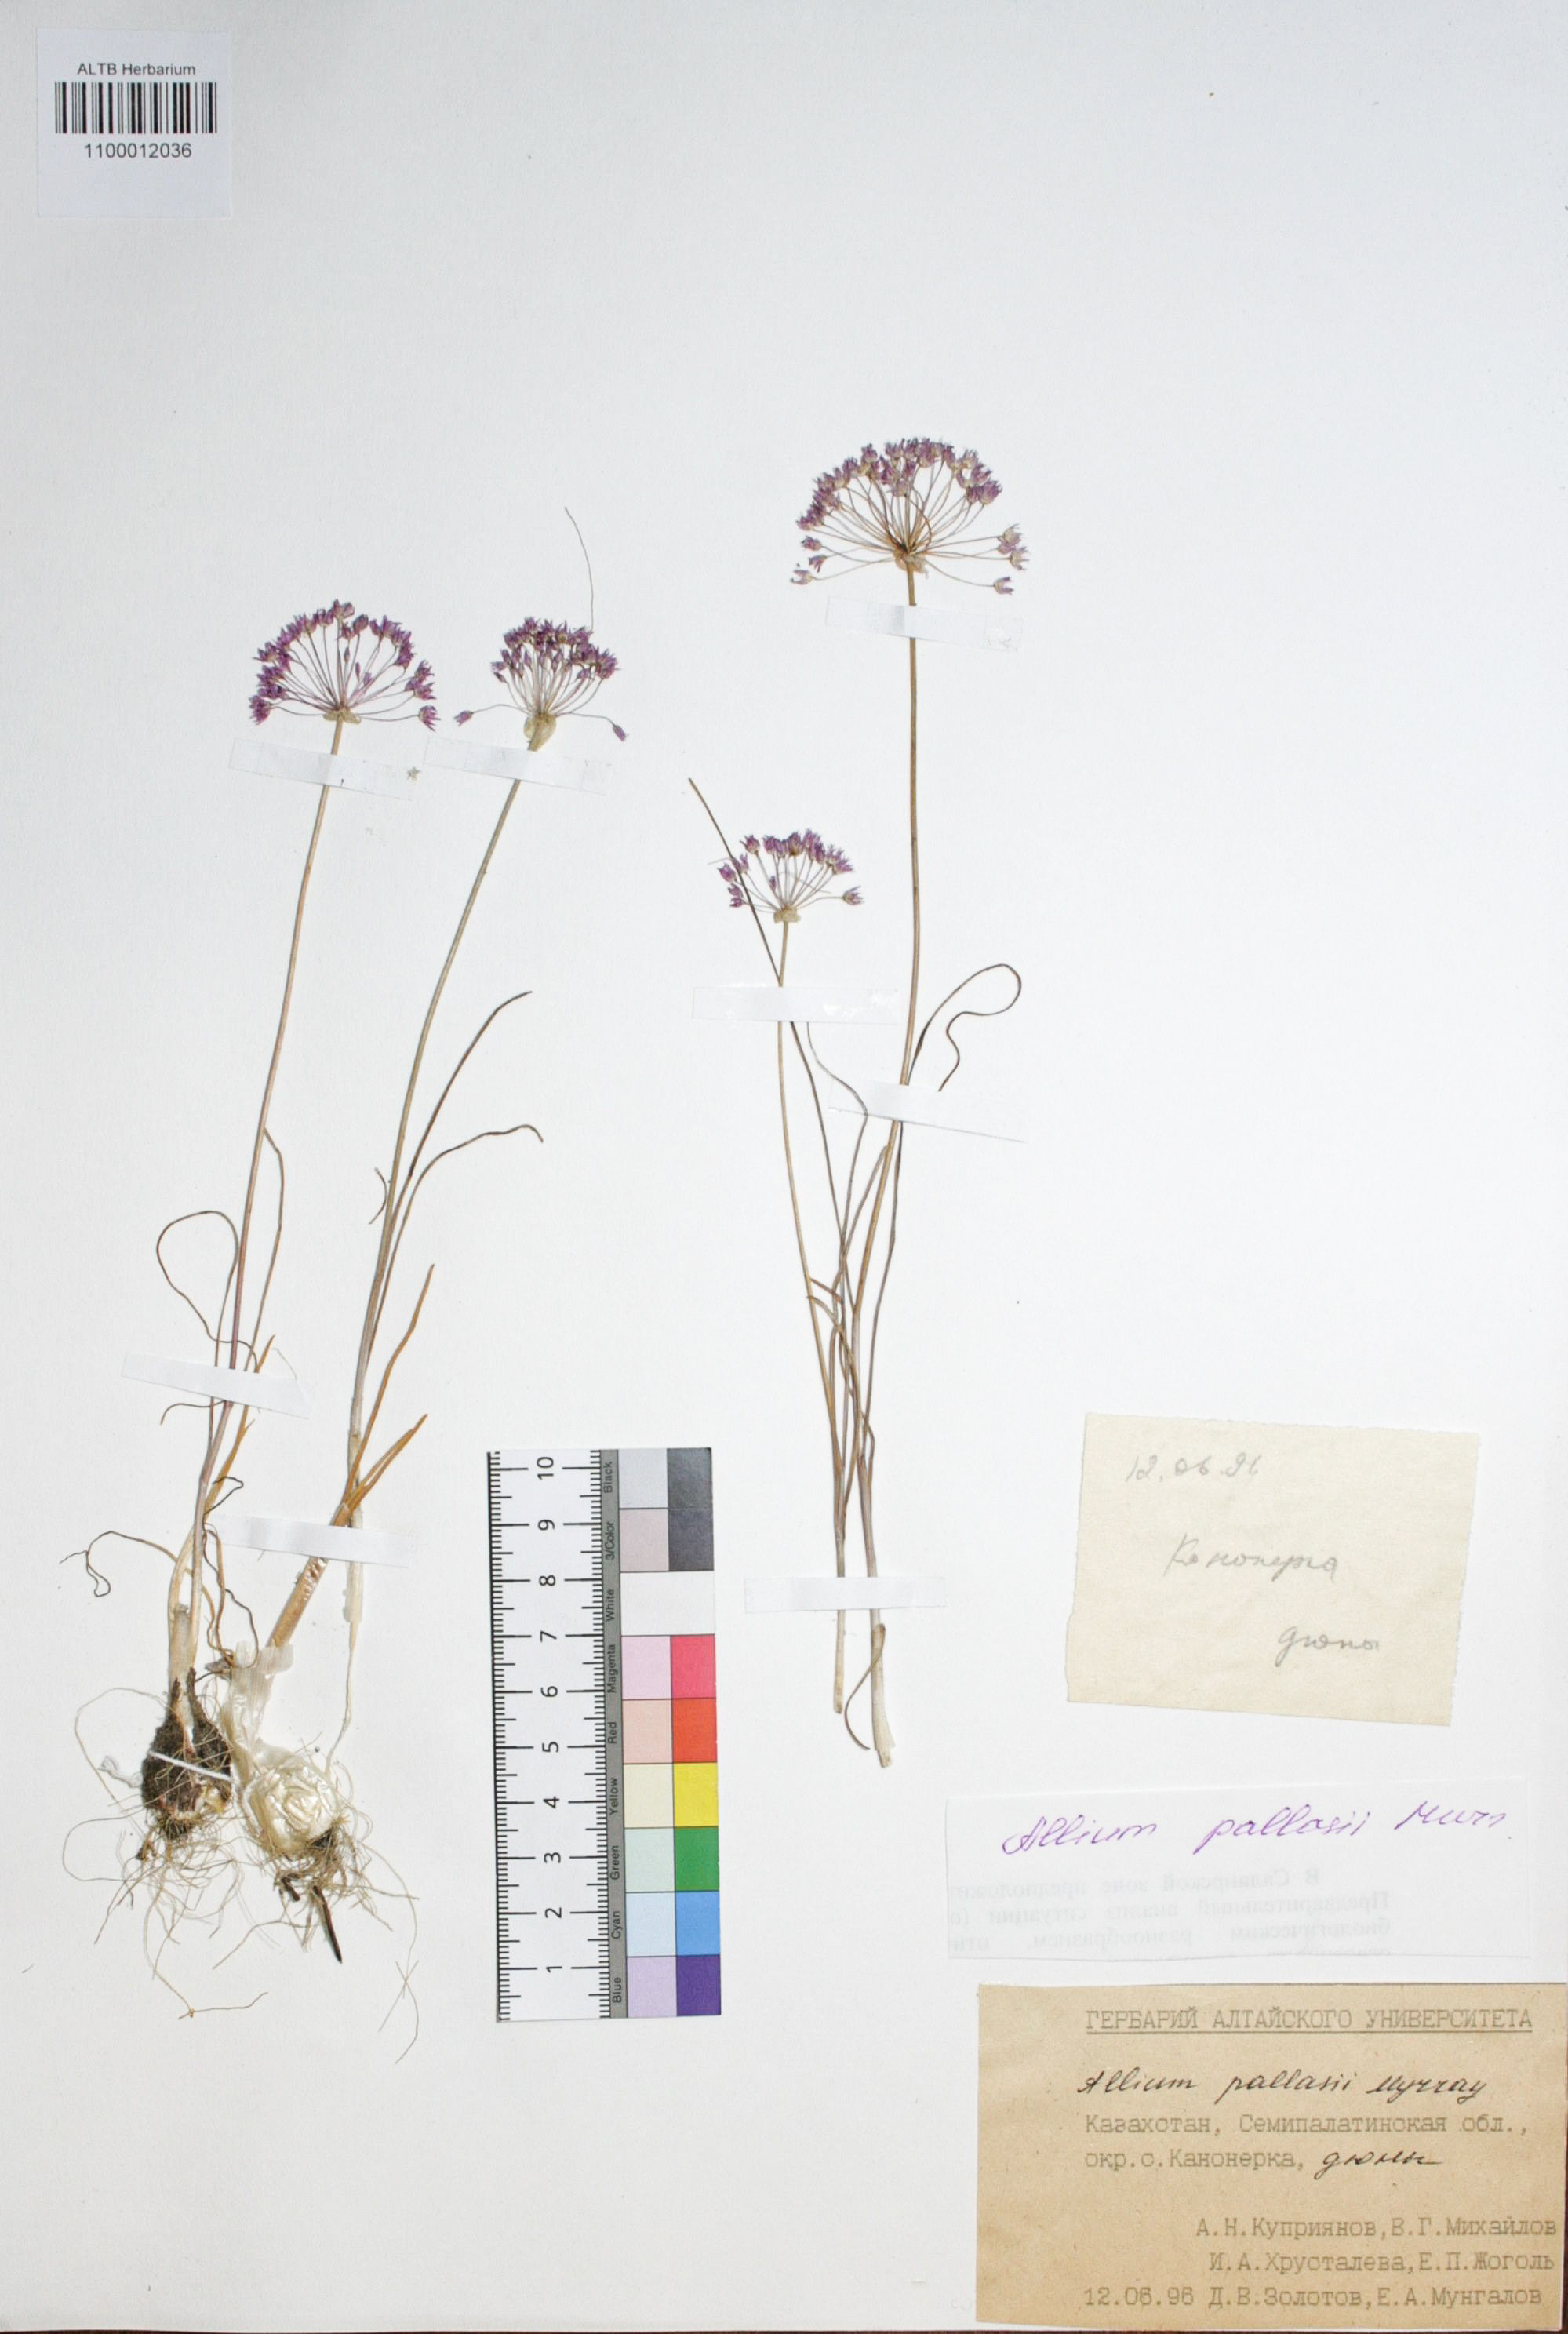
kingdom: Plantae
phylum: Tracheophyta
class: Liliopsida
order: Asparagales
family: Amaryllidaceae
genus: Allium
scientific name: Allium pallasii
